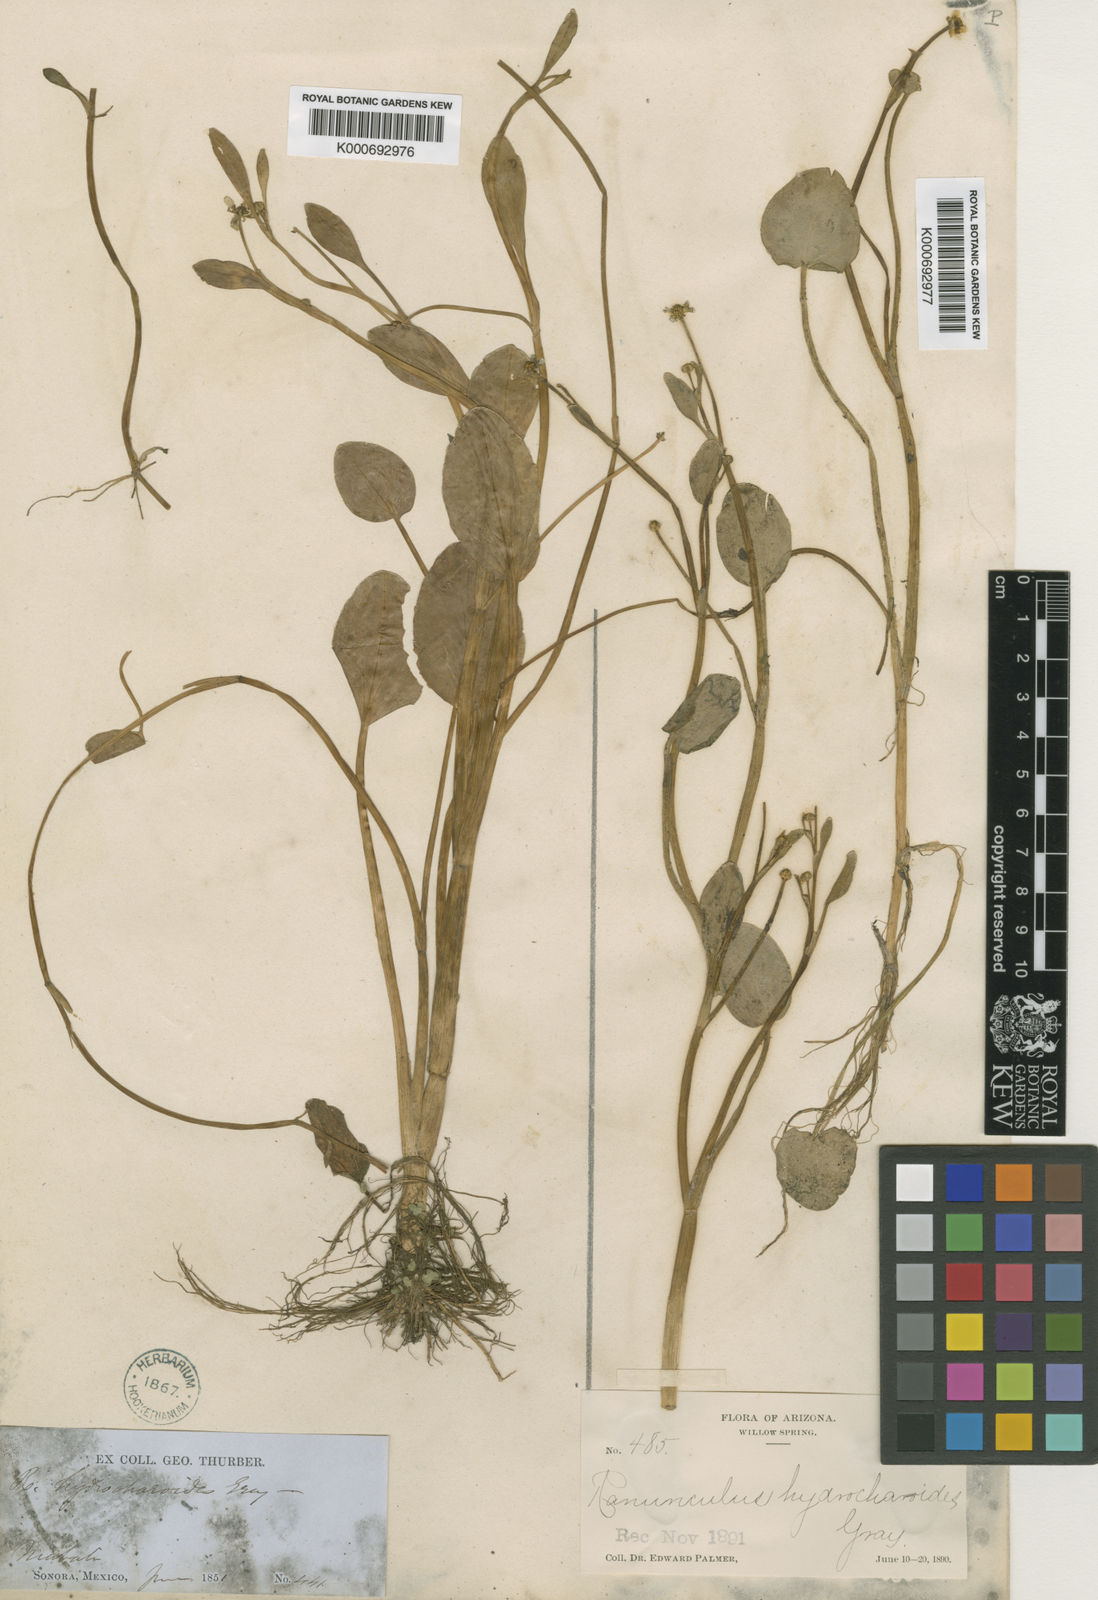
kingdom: Plantae
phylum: Tracheophyta
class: Magnoliopsida
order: Ranunculales
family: Ranunculaceae
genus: Ranunculus
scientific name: Ranunculus hydrocharoides
